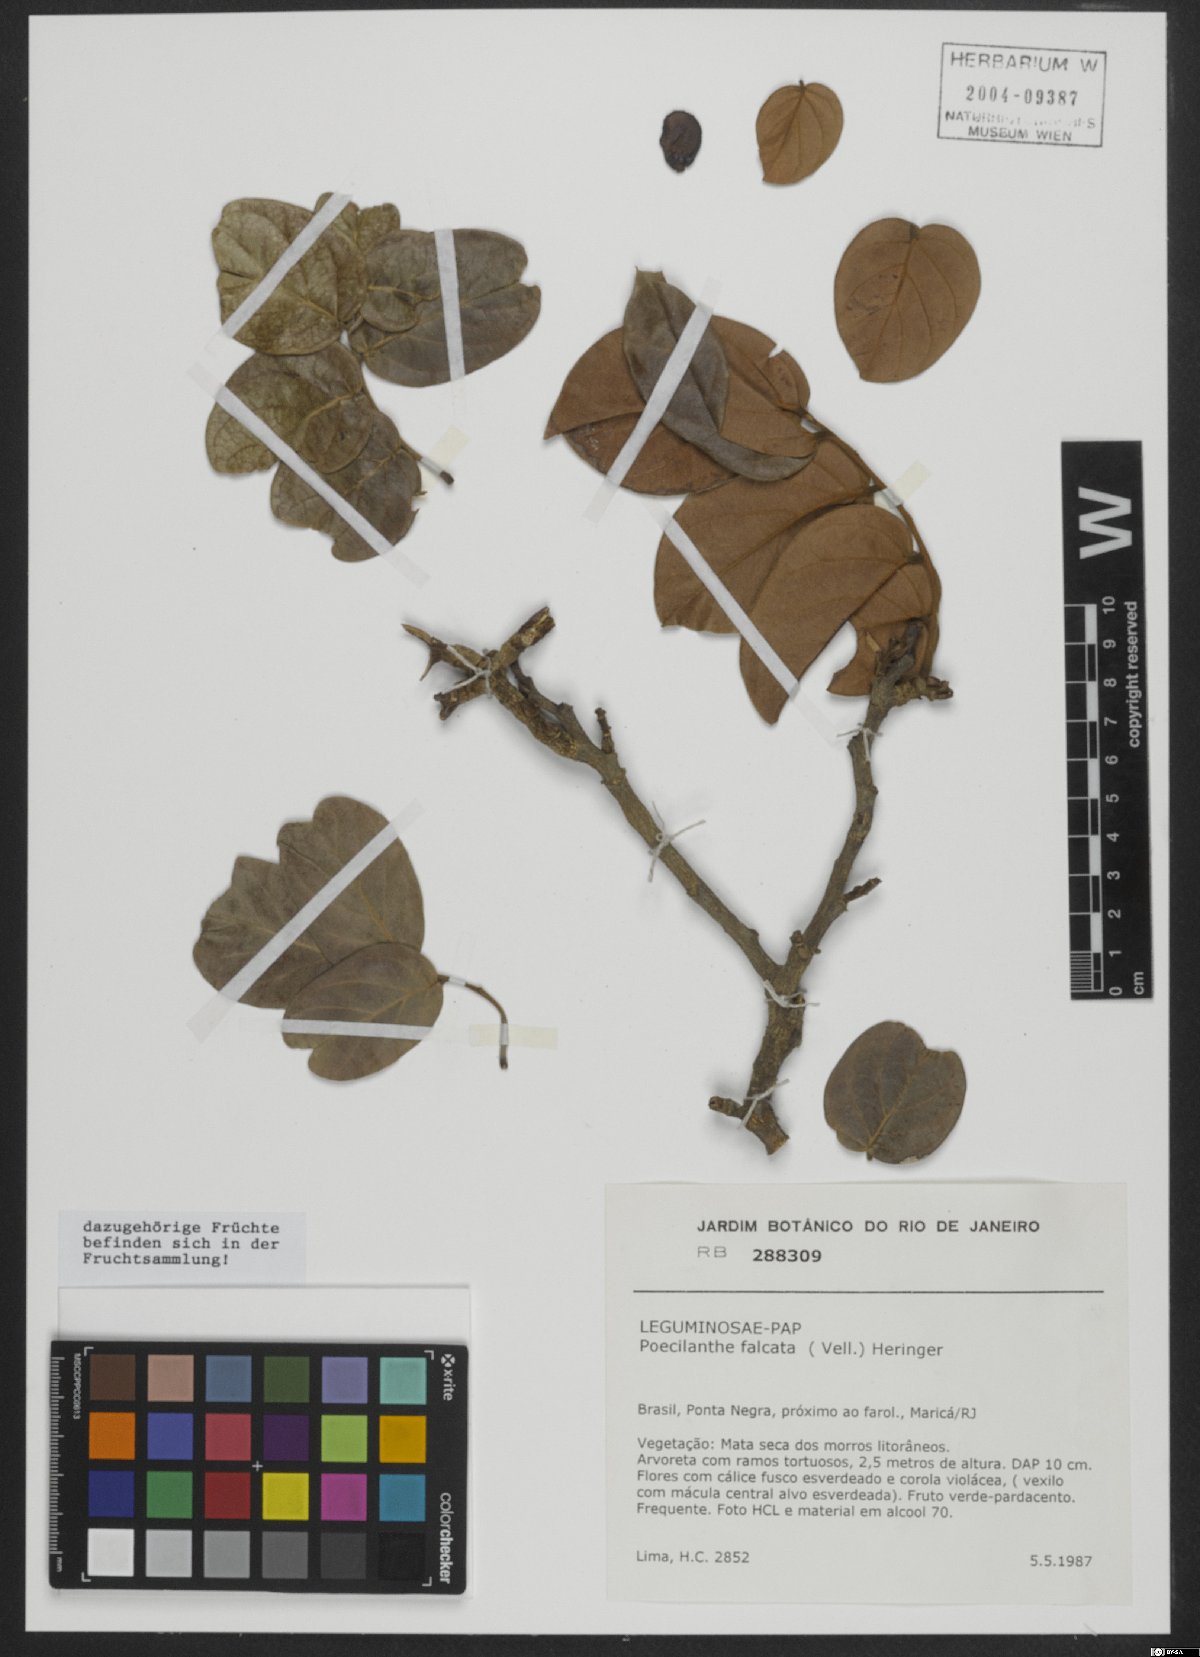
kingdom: Plantae
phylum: Tracheophyta
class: Magnoliopsida
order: Fabales
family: Fabaceae
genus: Poecilanthe
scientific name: Poecilanthe falcata
